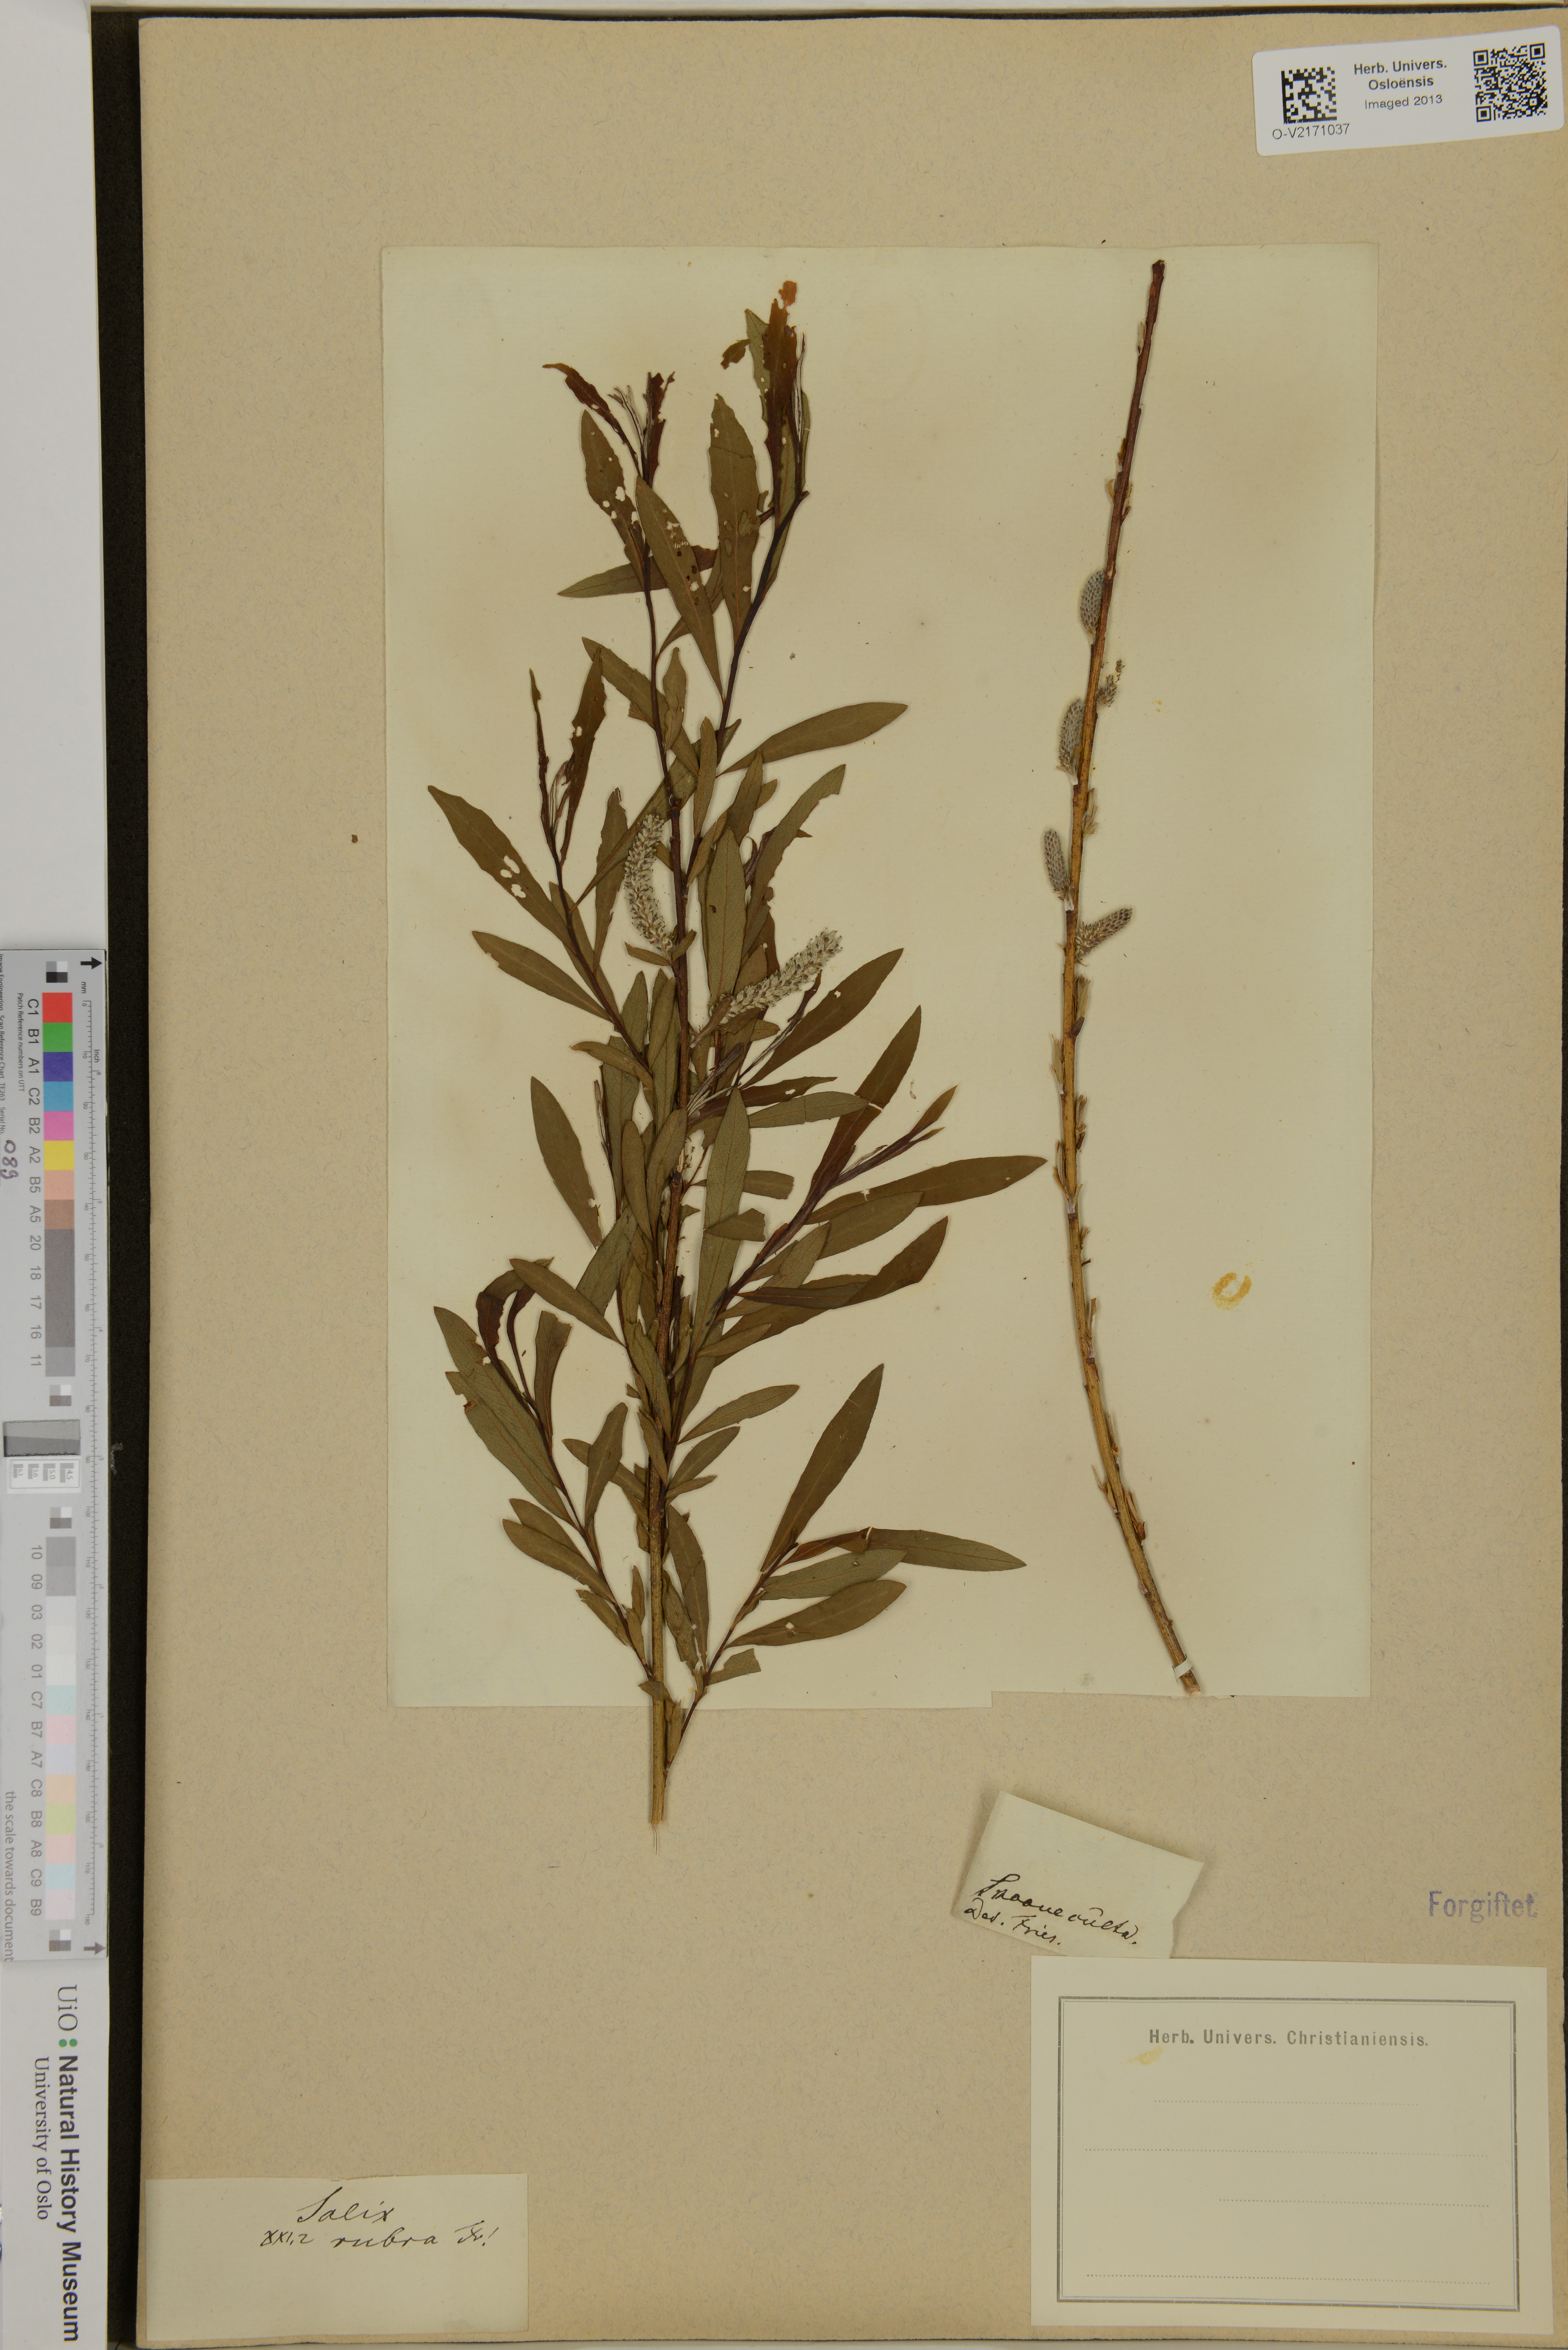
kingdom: Plantae
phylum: Tracheophyta
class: Magnoliopsida
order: Malpighiales
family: Salicaceae
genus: Salix
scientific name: Salix rubra
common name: Green-leaf willow
